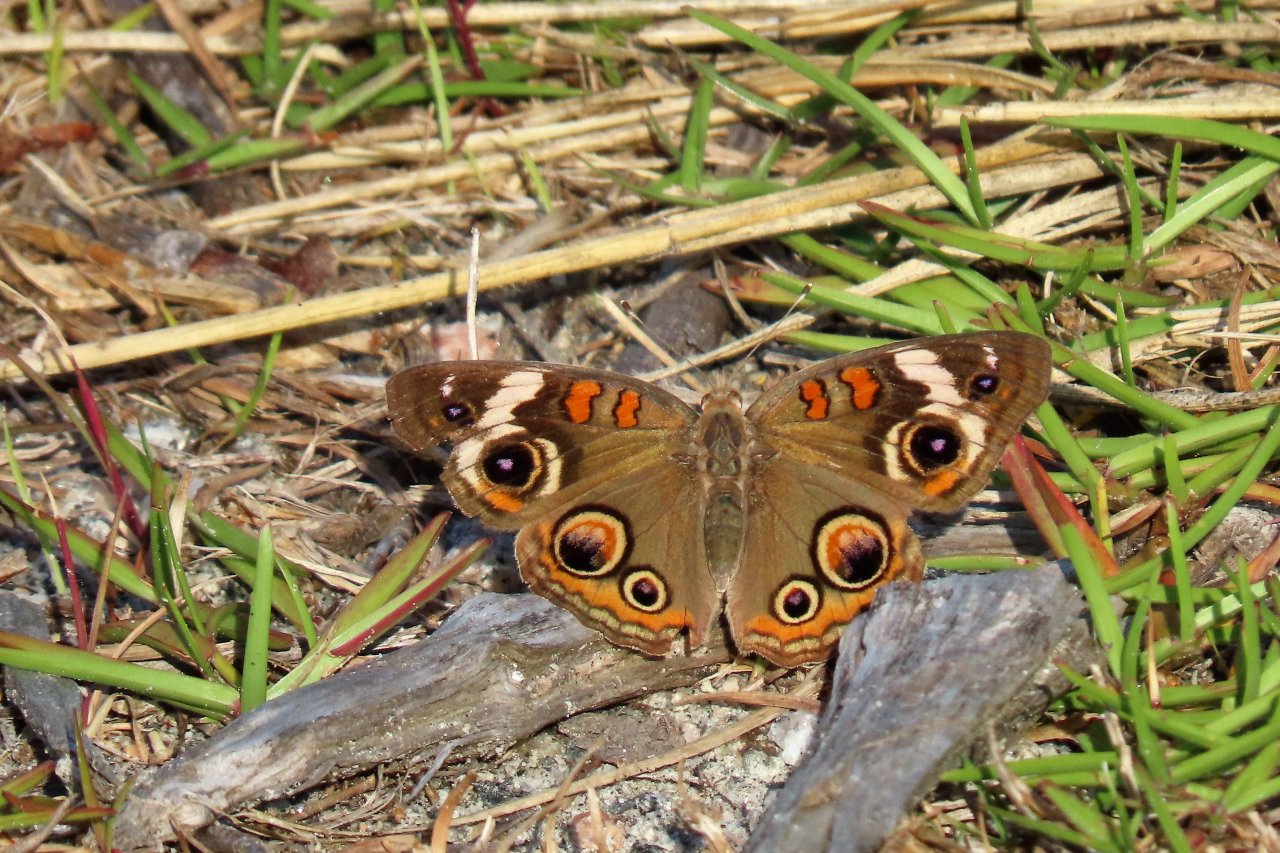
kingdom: Animalia
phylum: Arthropoda
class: Insecta
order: Lepidoptera
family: Nymphalidae
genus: Junonia
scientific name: Junonia coenia
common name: Common Buckeye
